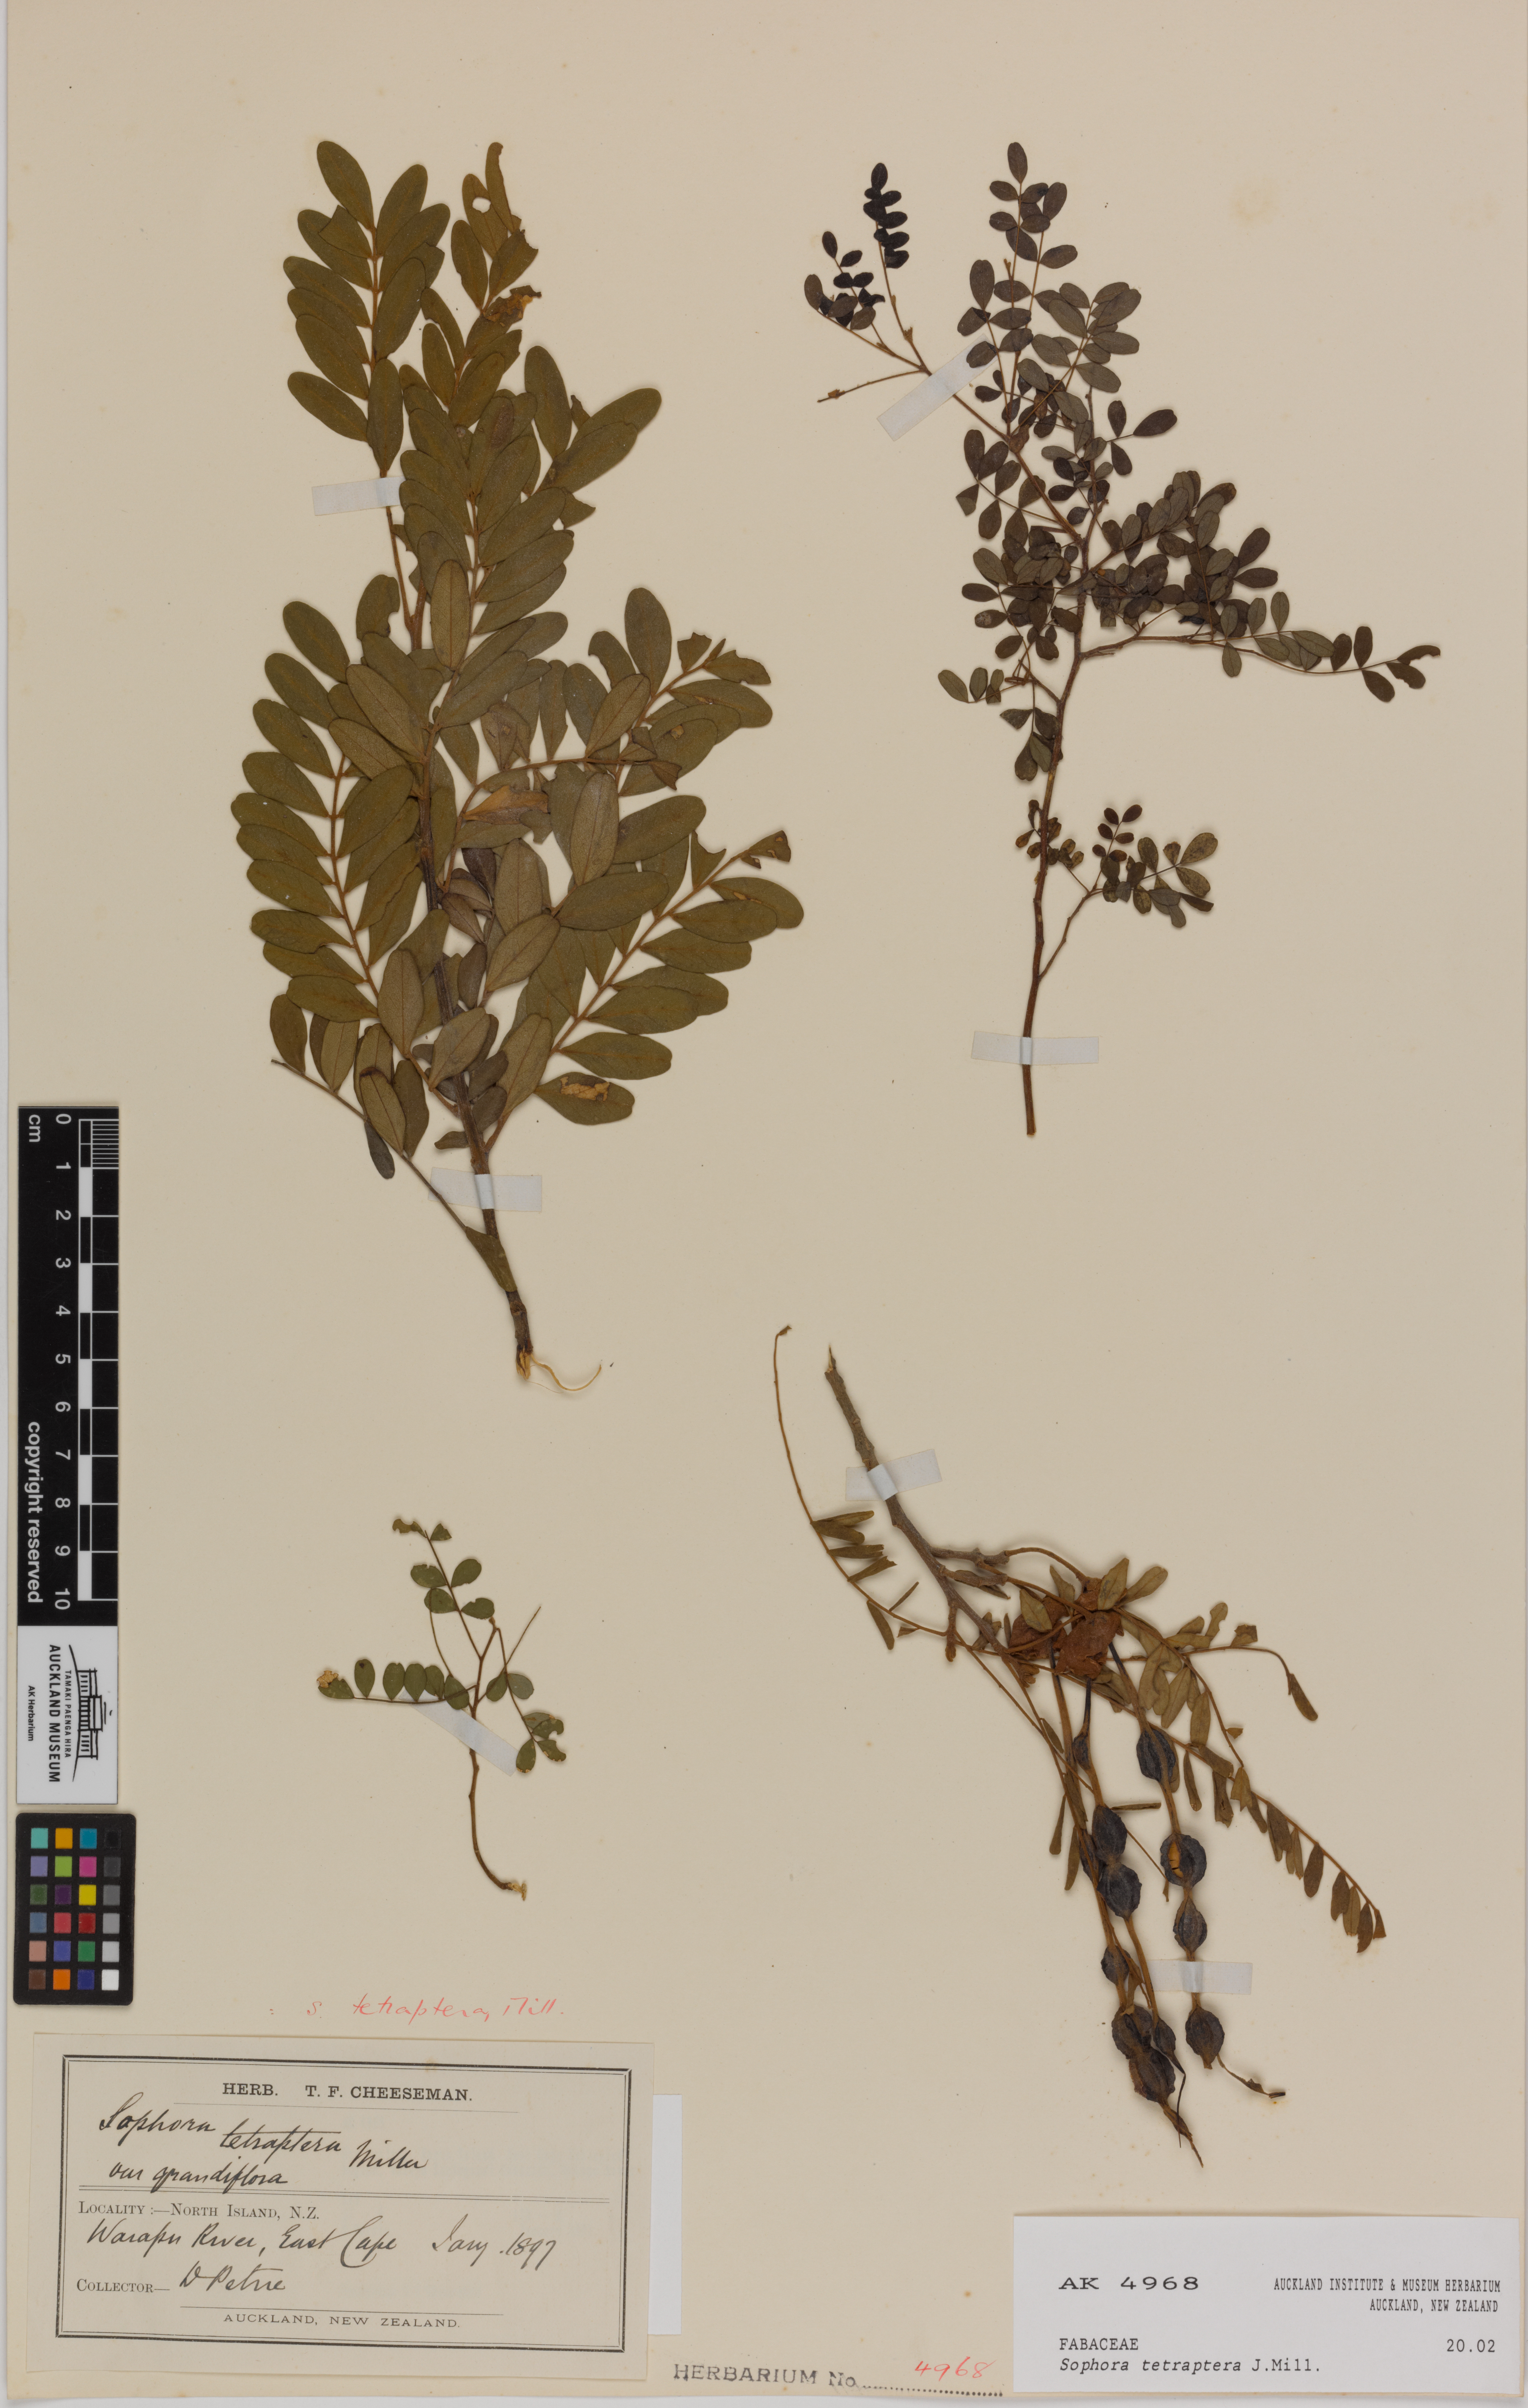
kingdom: Plantae
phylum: Tracheophyta
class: Magnoliopsida
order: Fabales
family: Fabaceae
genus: Sophora
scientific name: Sophora tetraptera
